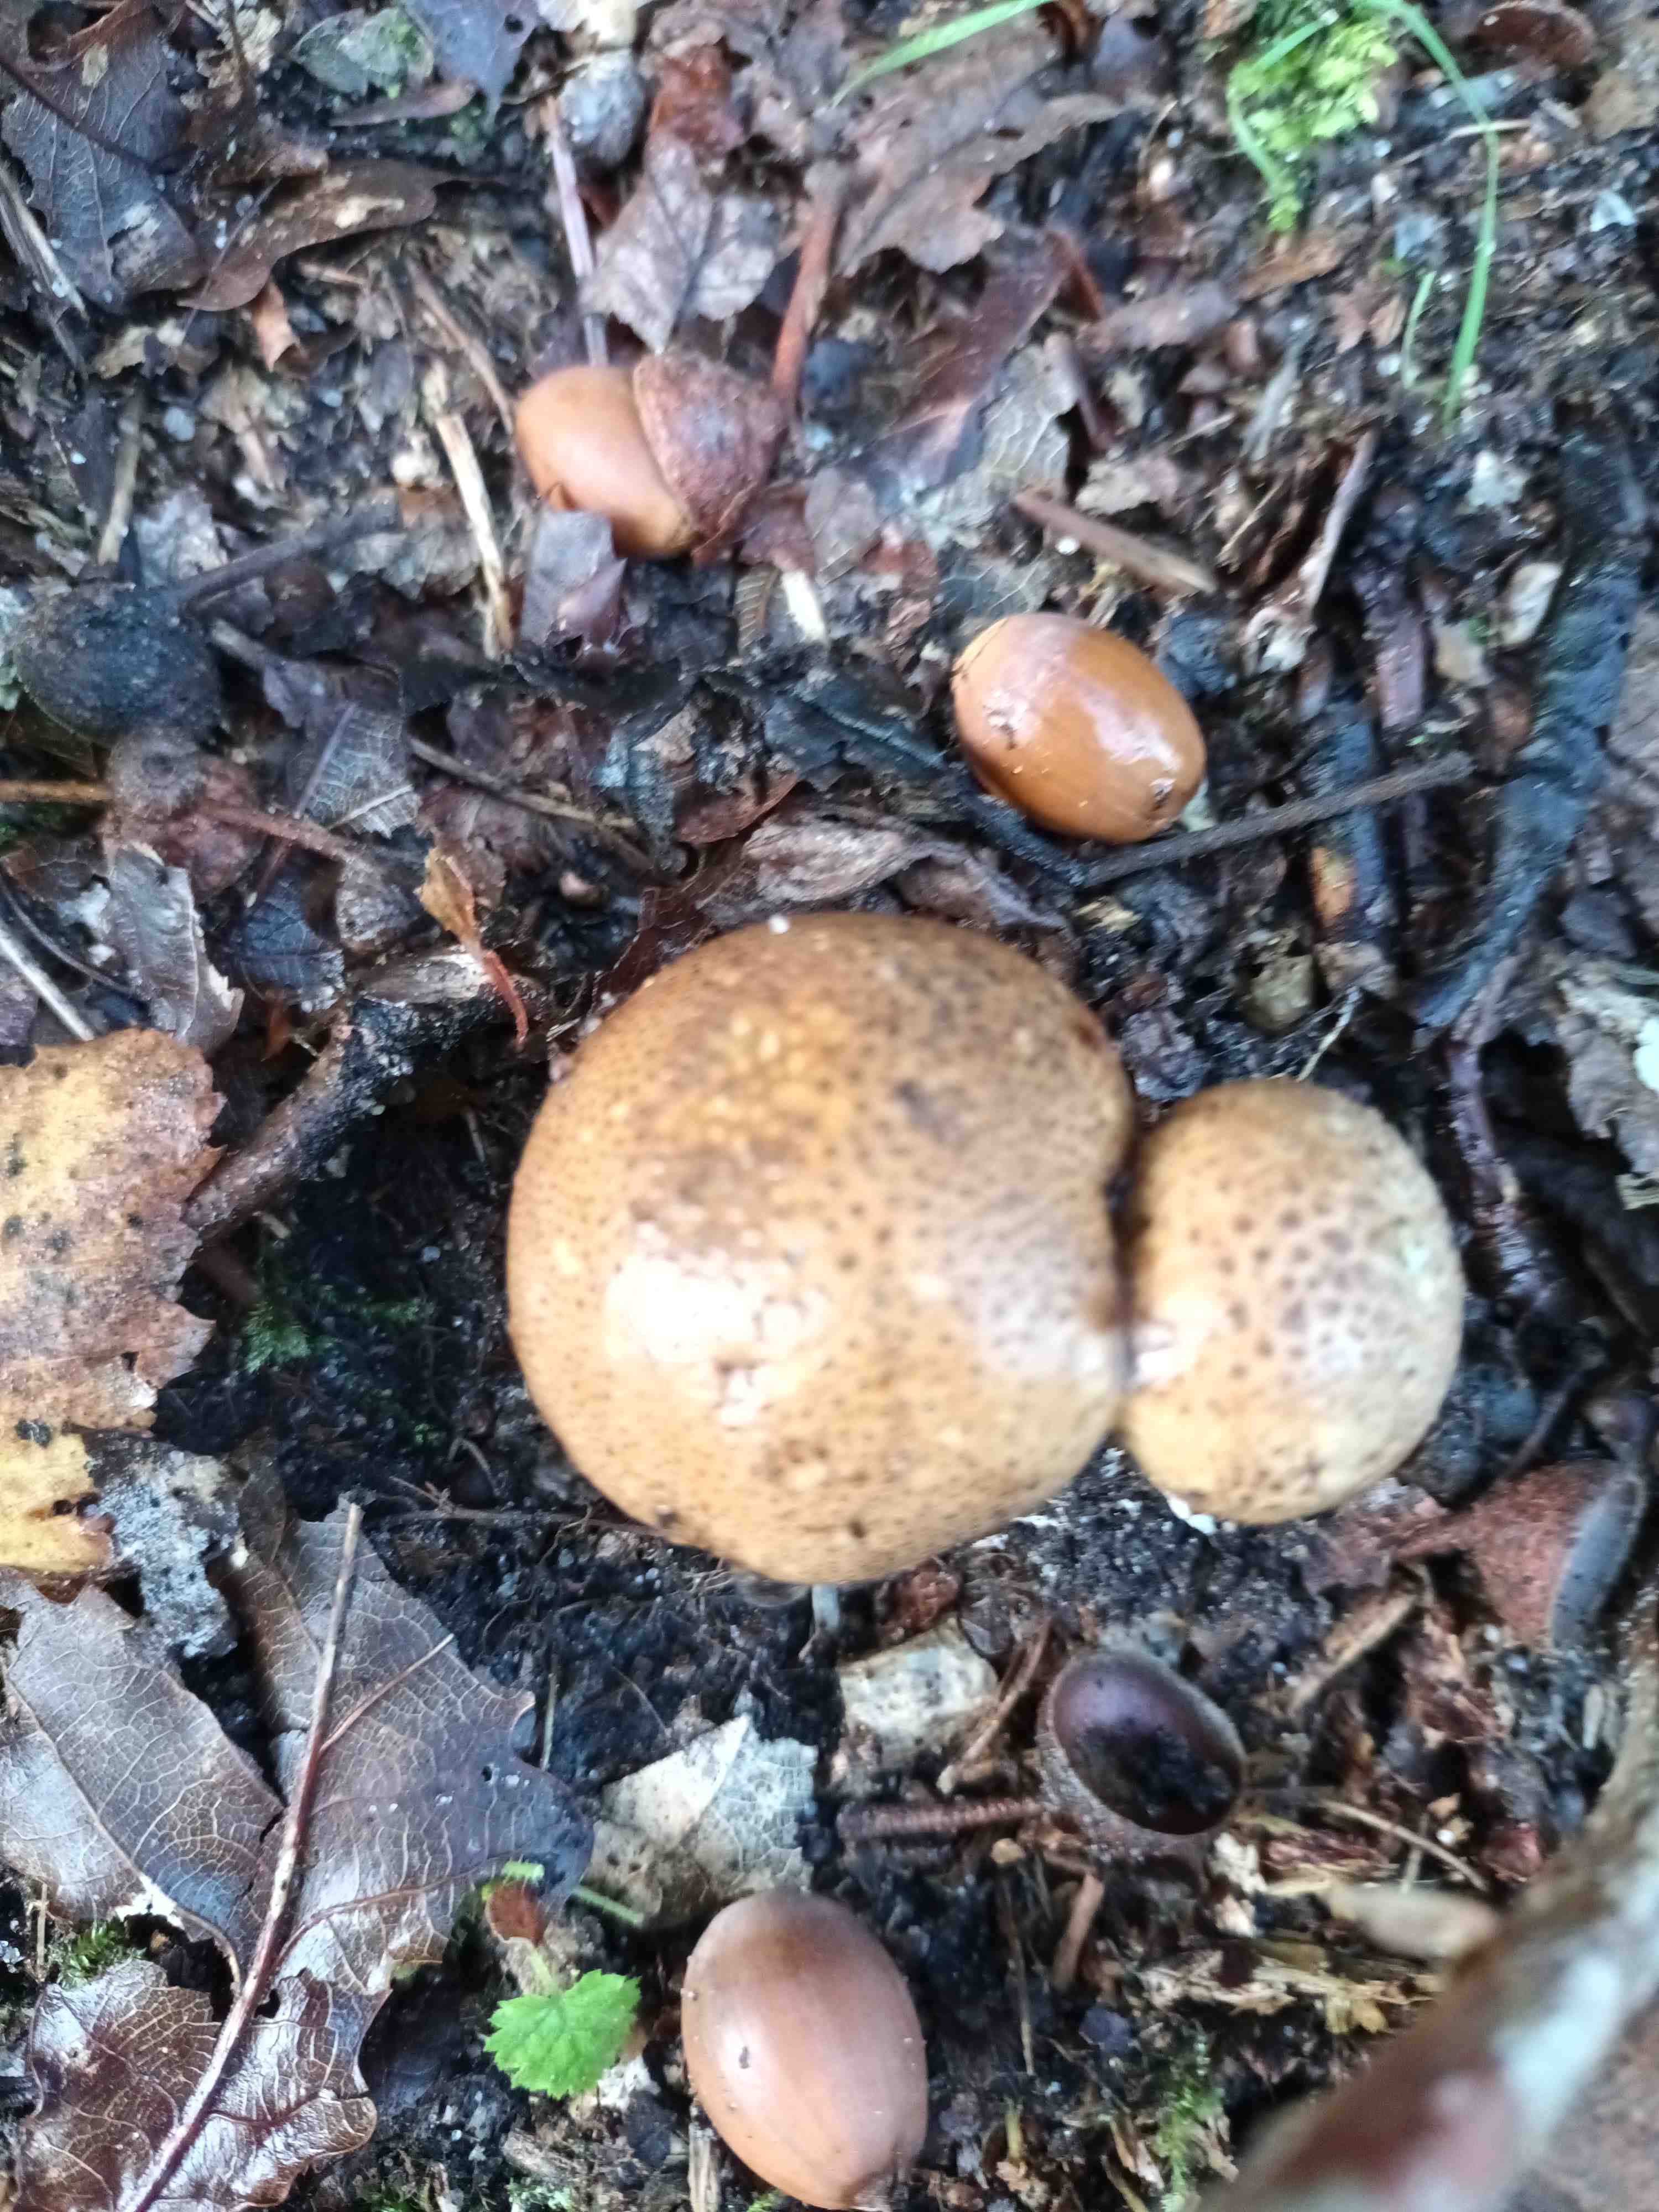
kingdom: Fungi
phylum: Basidiomycota
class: Agaricomycetes
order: Boletales
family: Sclerodermataceae
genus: Scleroderma
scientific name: Scleroderma
